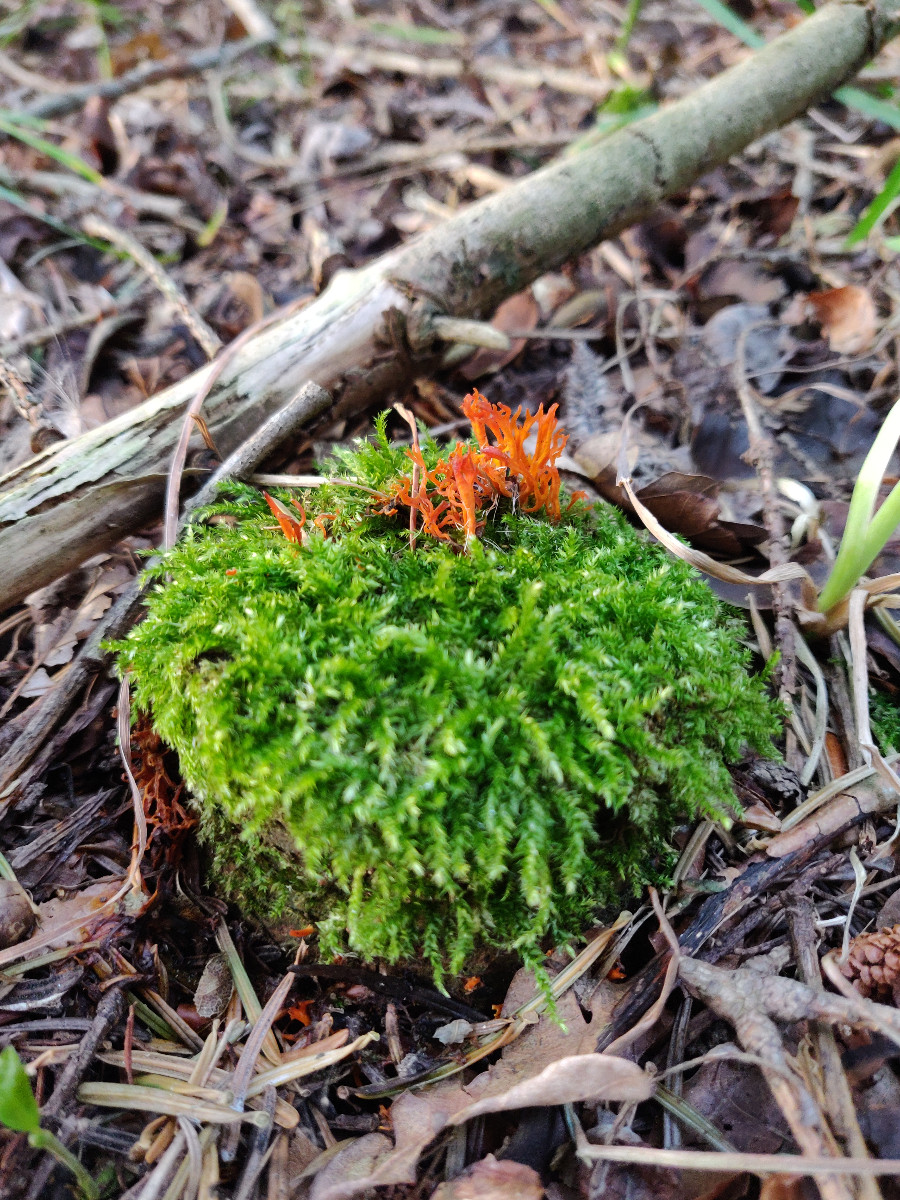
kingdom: Fungi
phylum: Basidiomycota
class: Dacrymycetes
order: Dacrymycetales
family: Dacrymycetaceae
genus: Calocera
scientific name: Calocera viscosa
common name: almindelig guldgaffel
